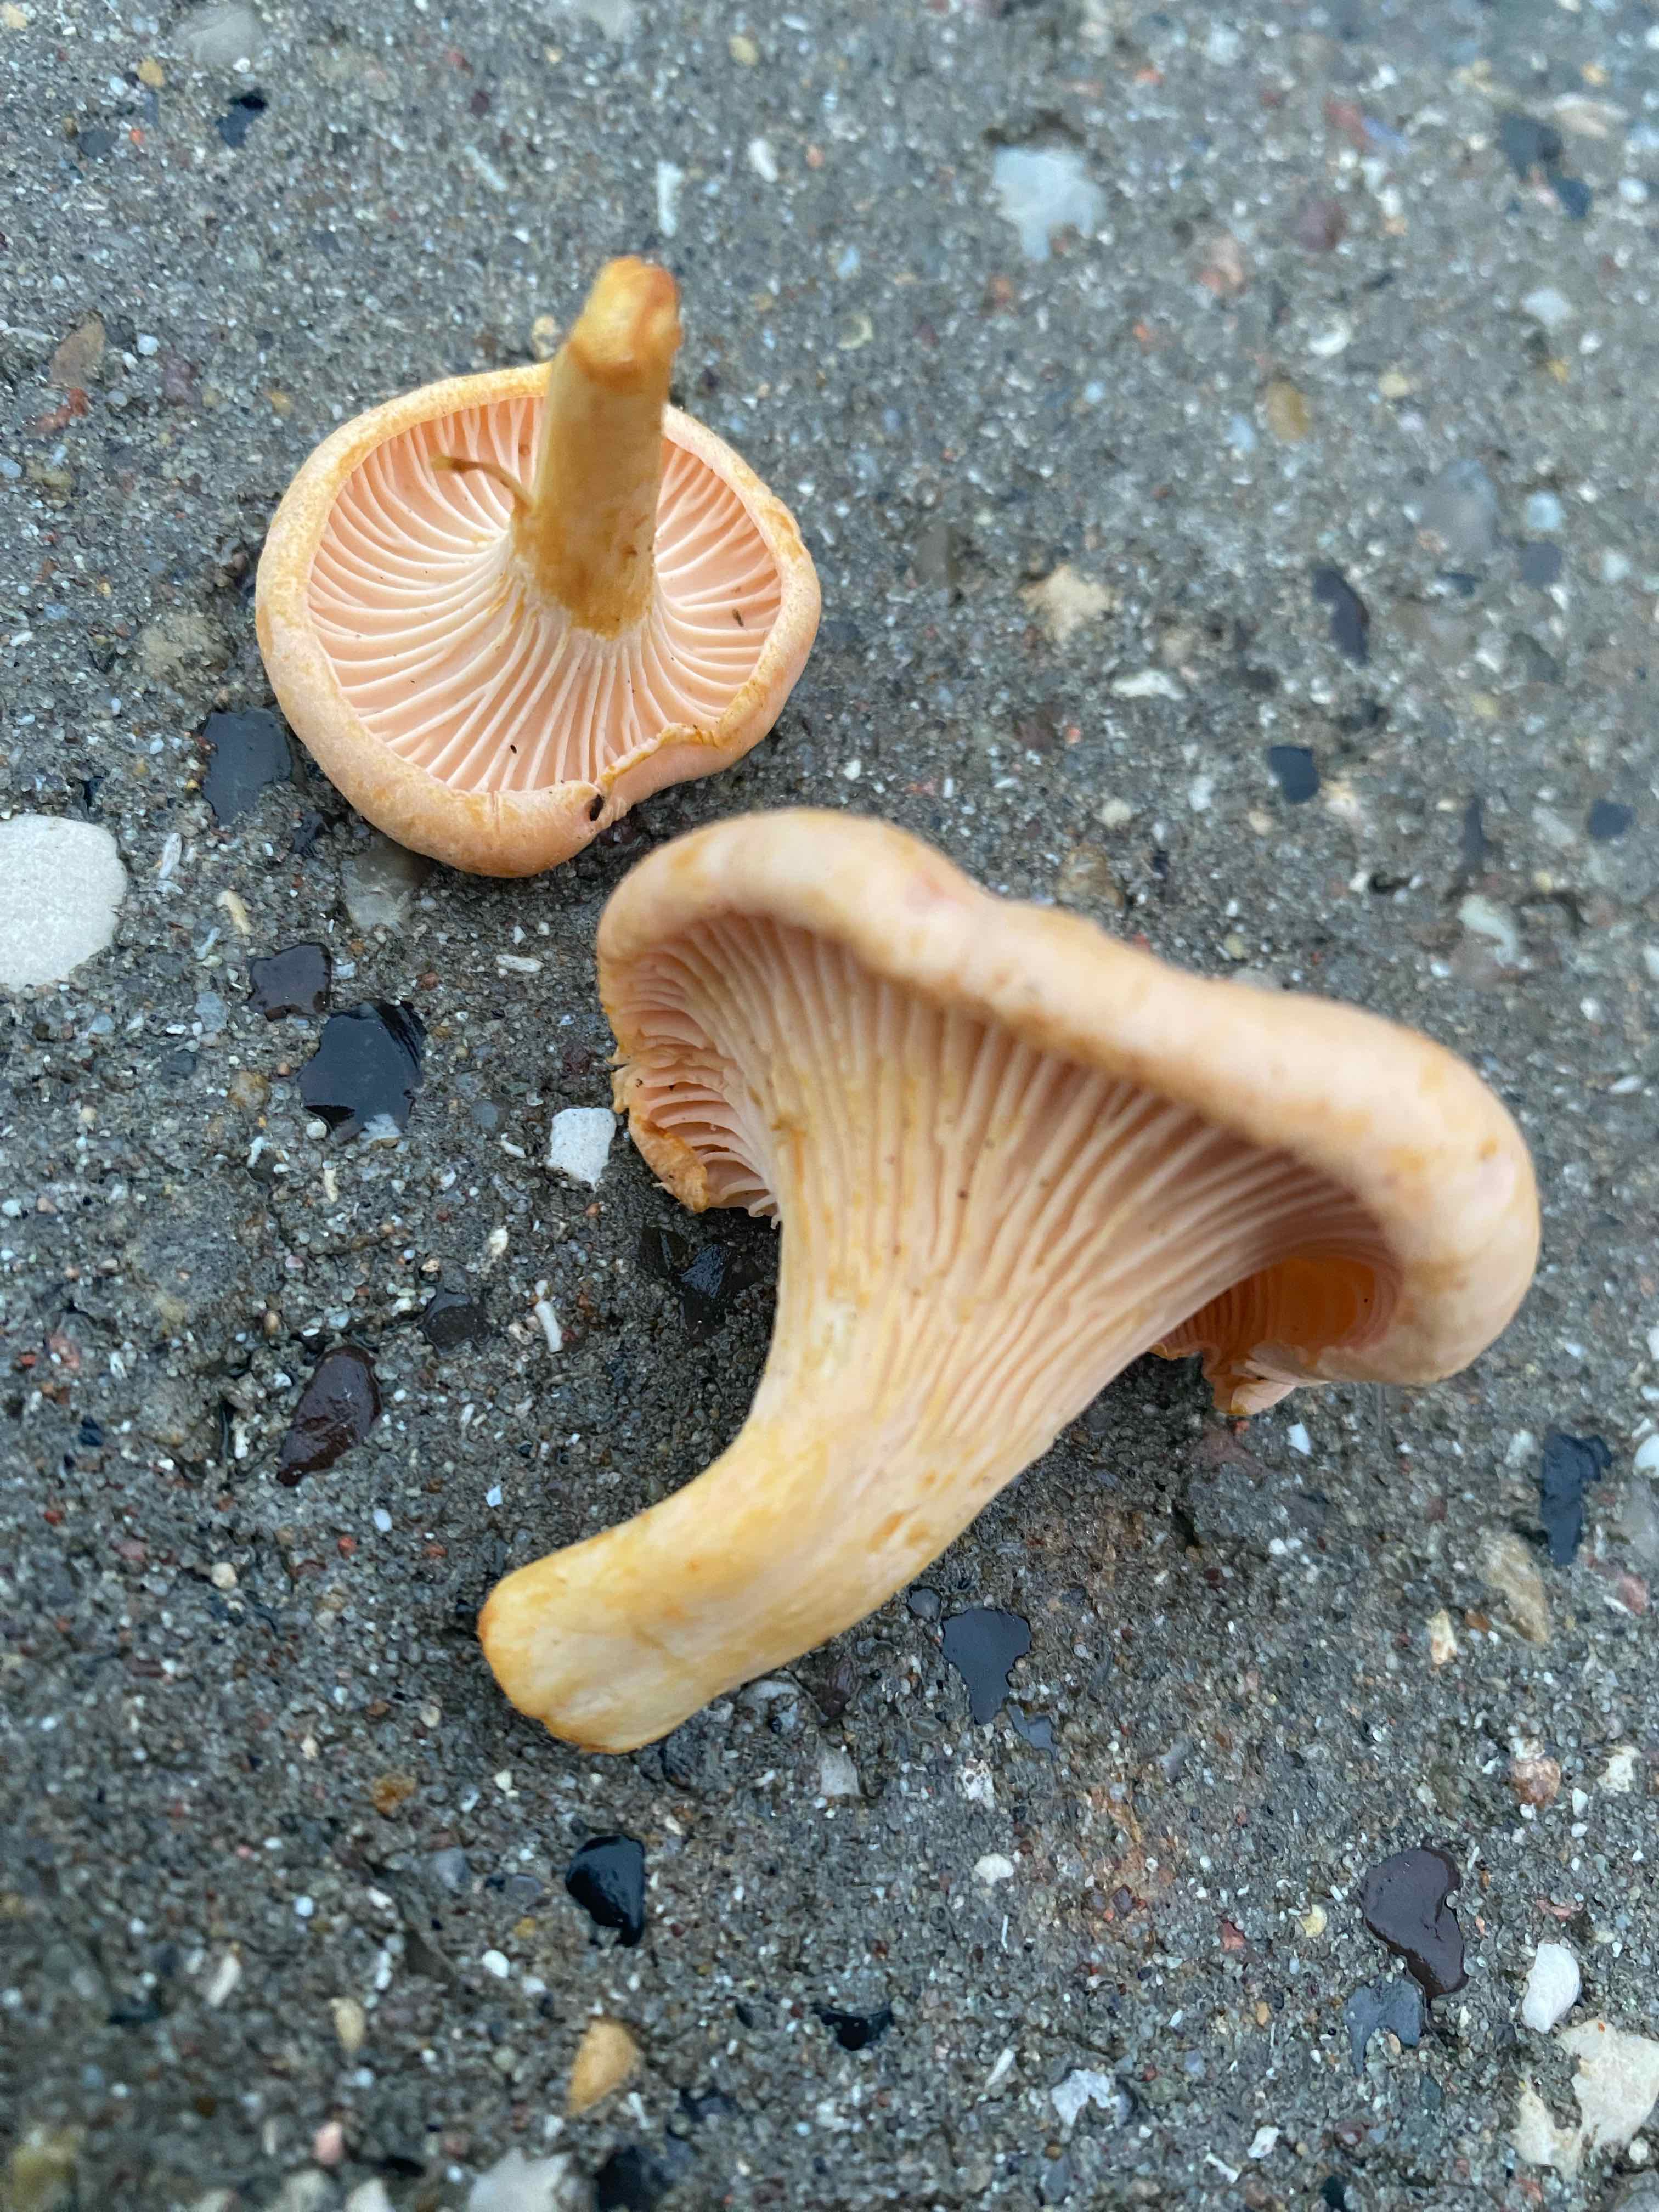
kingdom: Fungi
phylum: Basidiomycota
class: Agaricomycetes
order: Cantharellales
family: Hydnaceae
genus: Cantharellus
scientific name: Cantharellus cibarius
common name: almindelig kantarel
